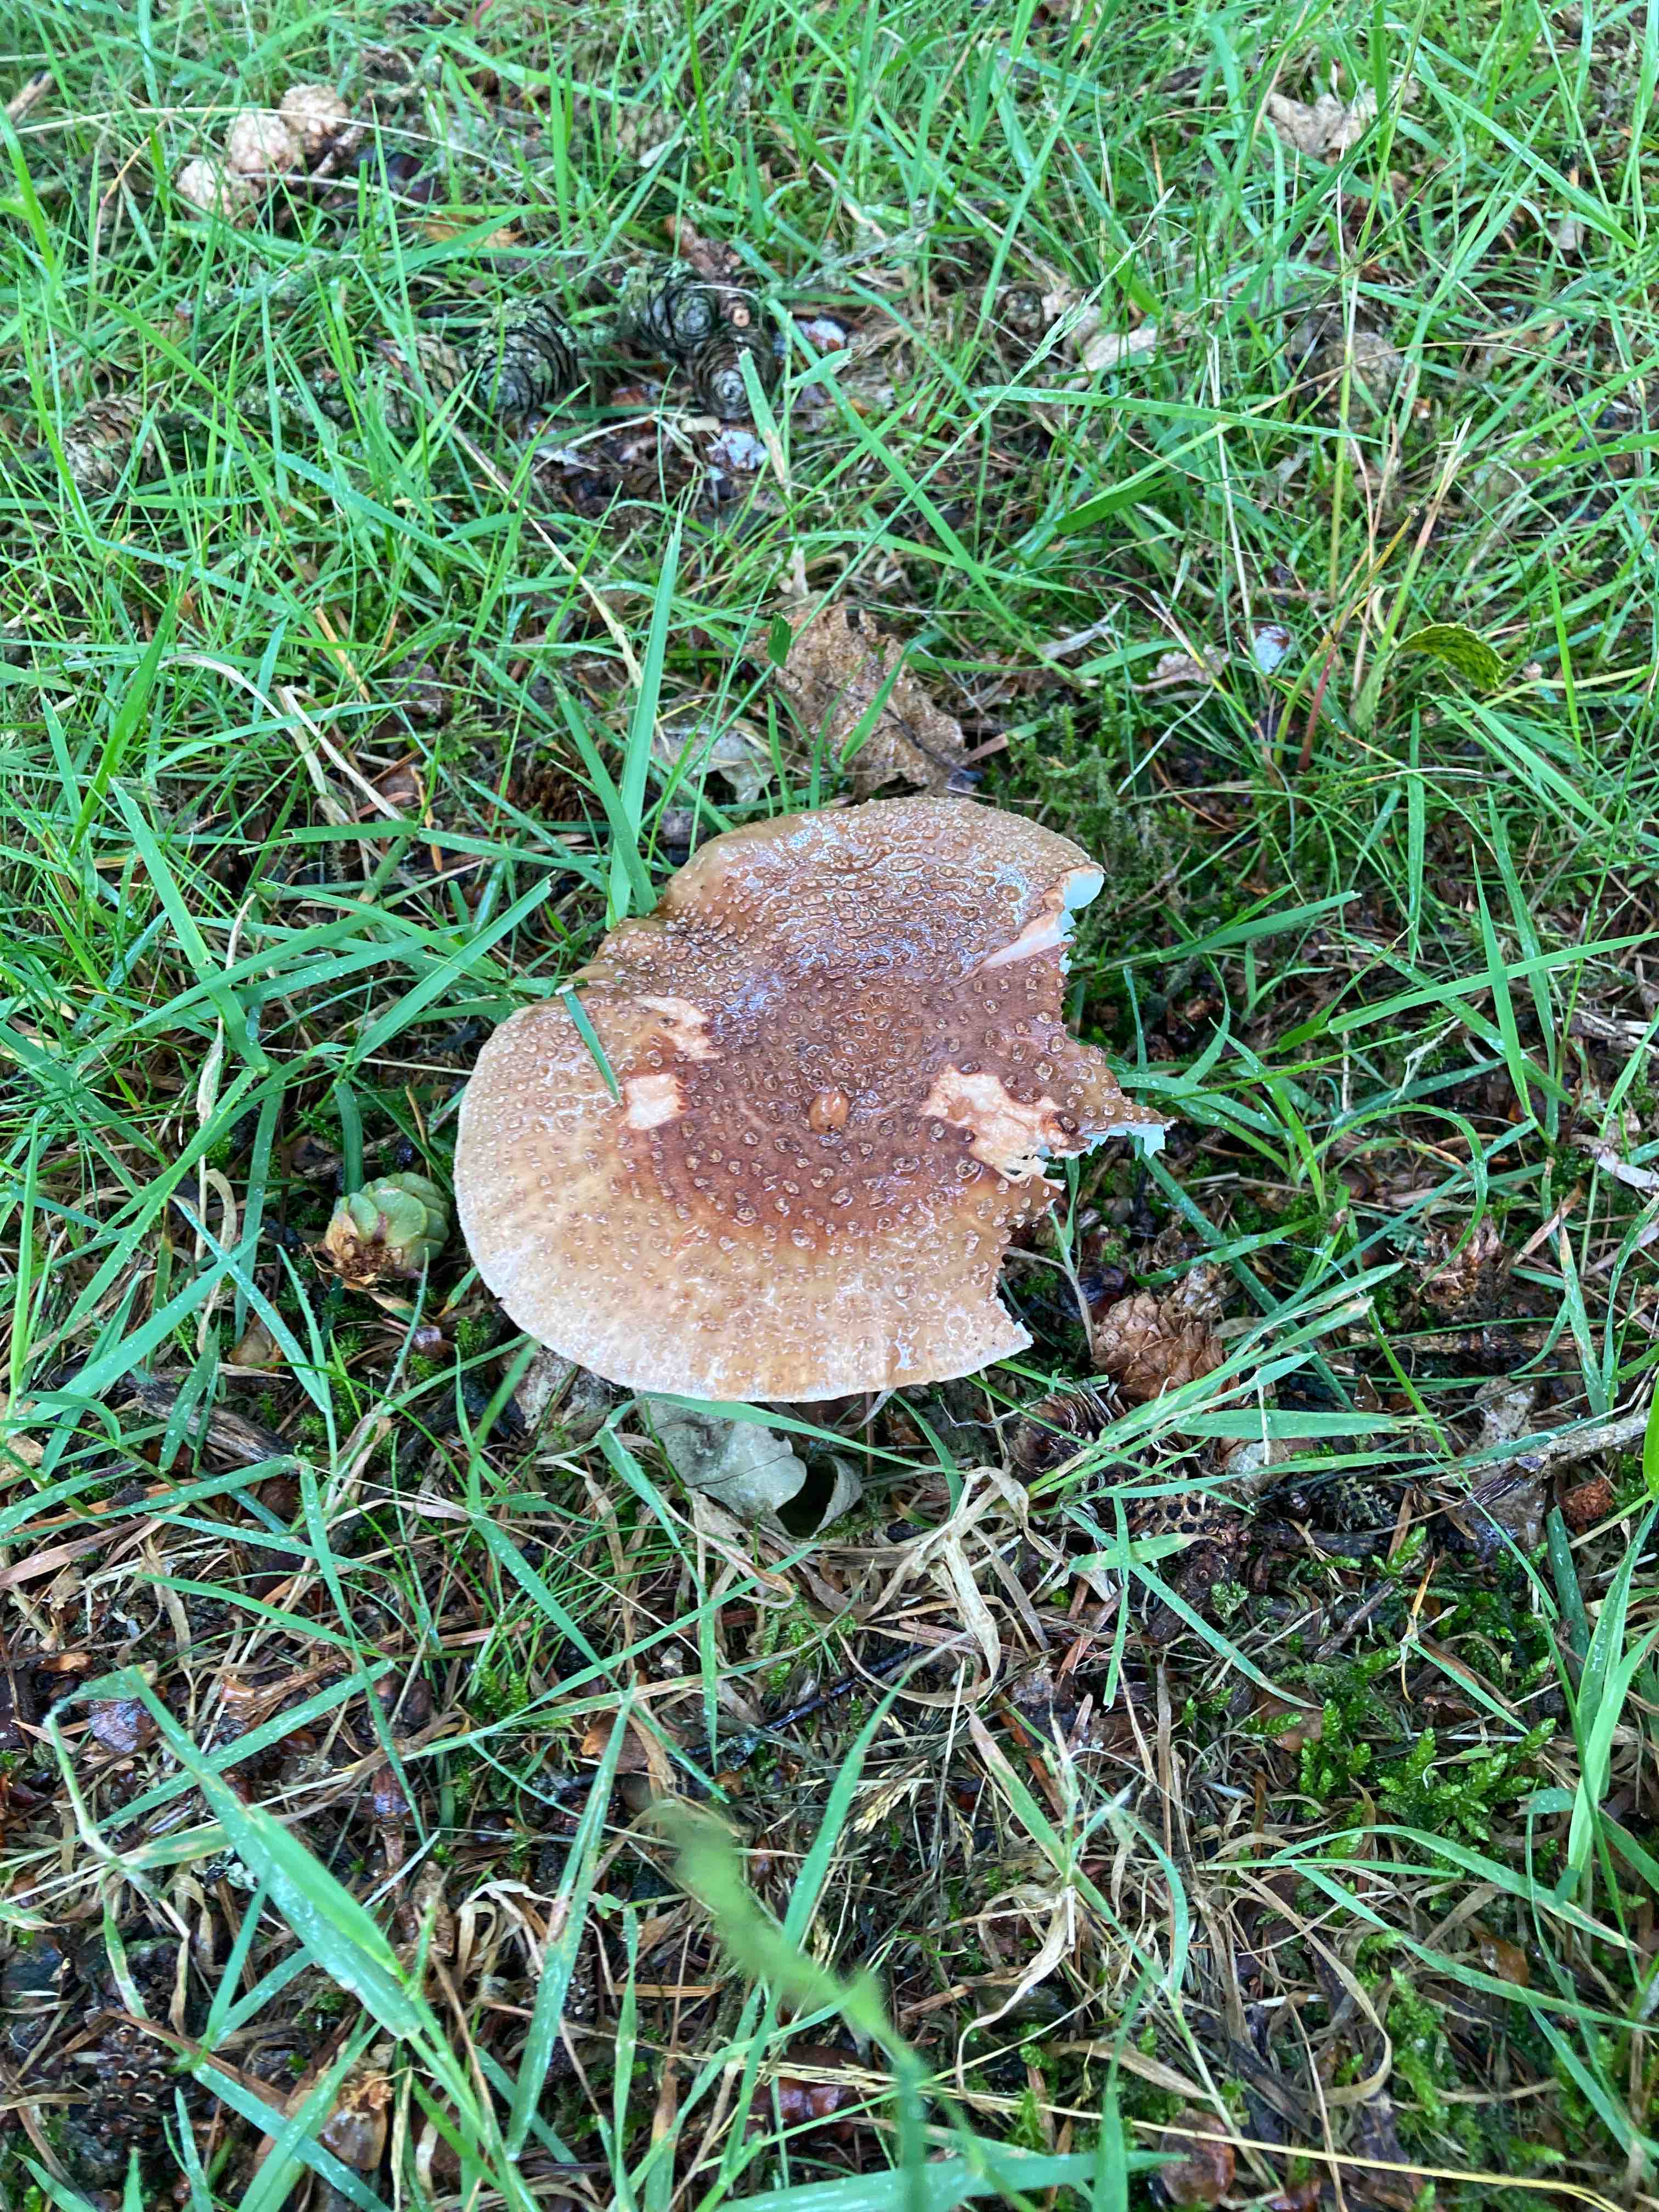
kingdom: Fungi
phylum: Basidiomycota
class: Agaricomycetes
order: Agaricales
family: Amanitaceae
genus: Amanita
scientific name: Amanita rubescens
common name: rødmende fluesvamp
